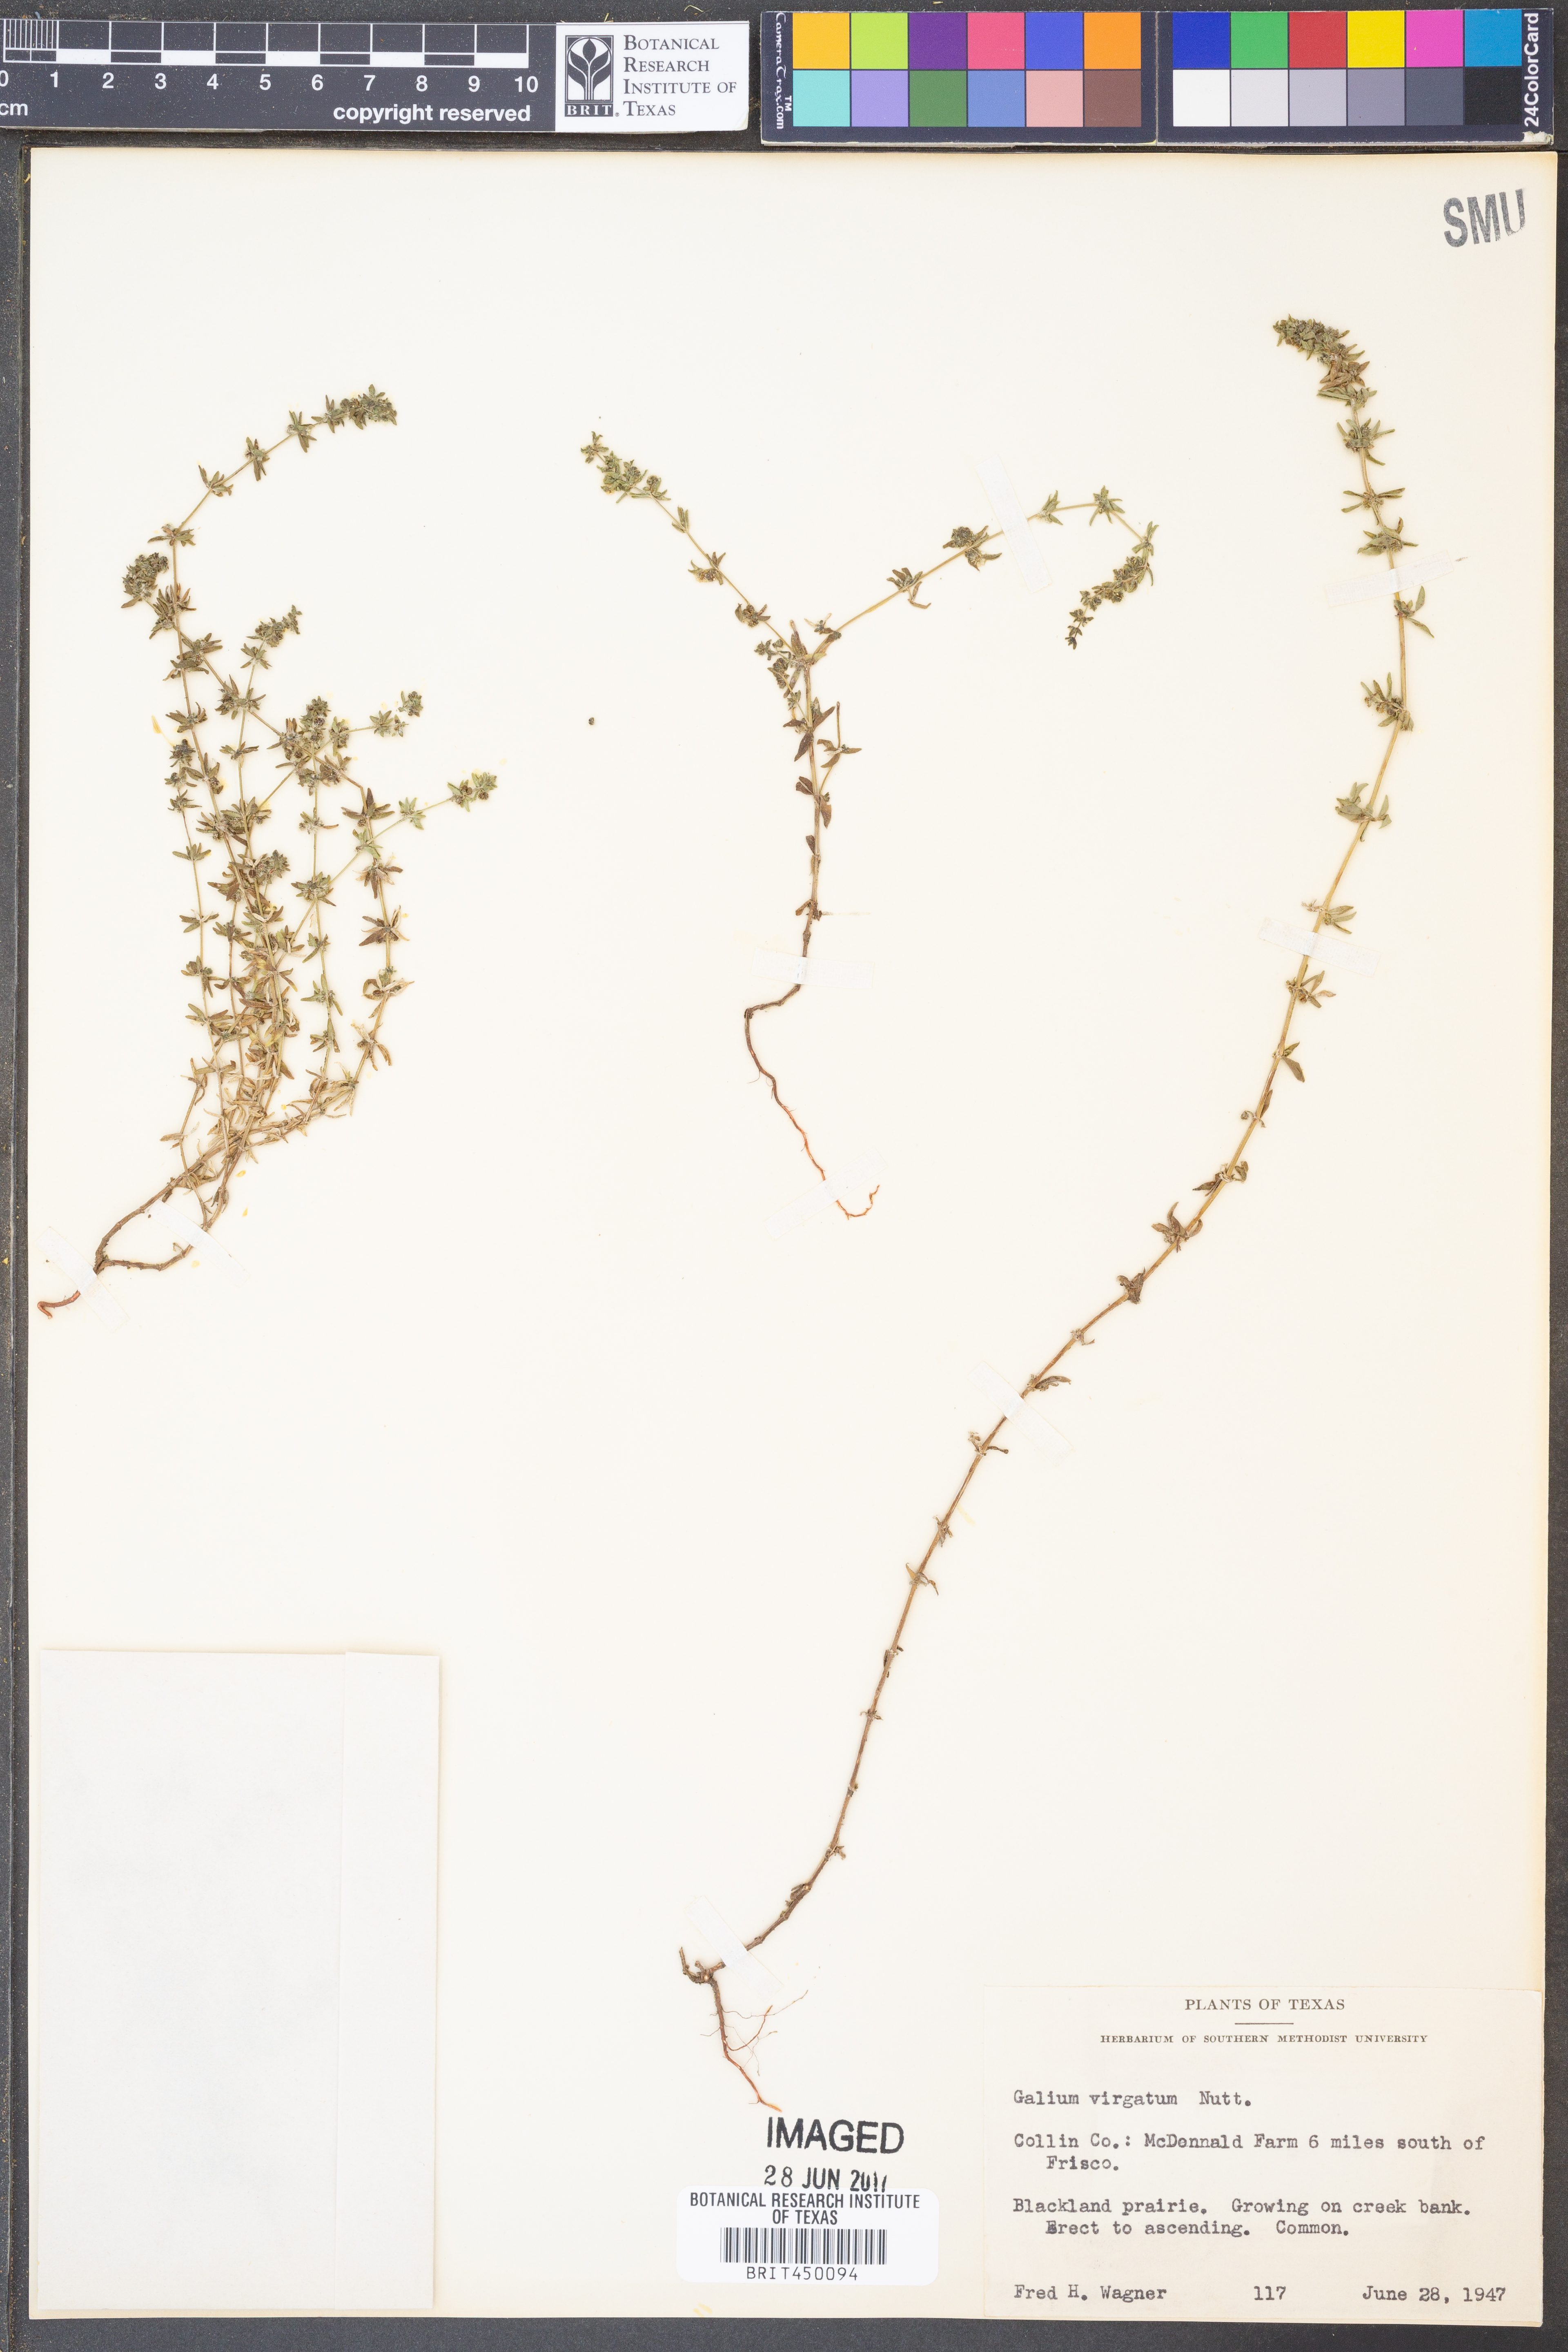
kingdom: Plantae
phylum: Tracheophyta
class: Magnoliopsida
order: Gentianales
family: Rubiaceae
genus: Galium
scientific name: Galium virgatum
